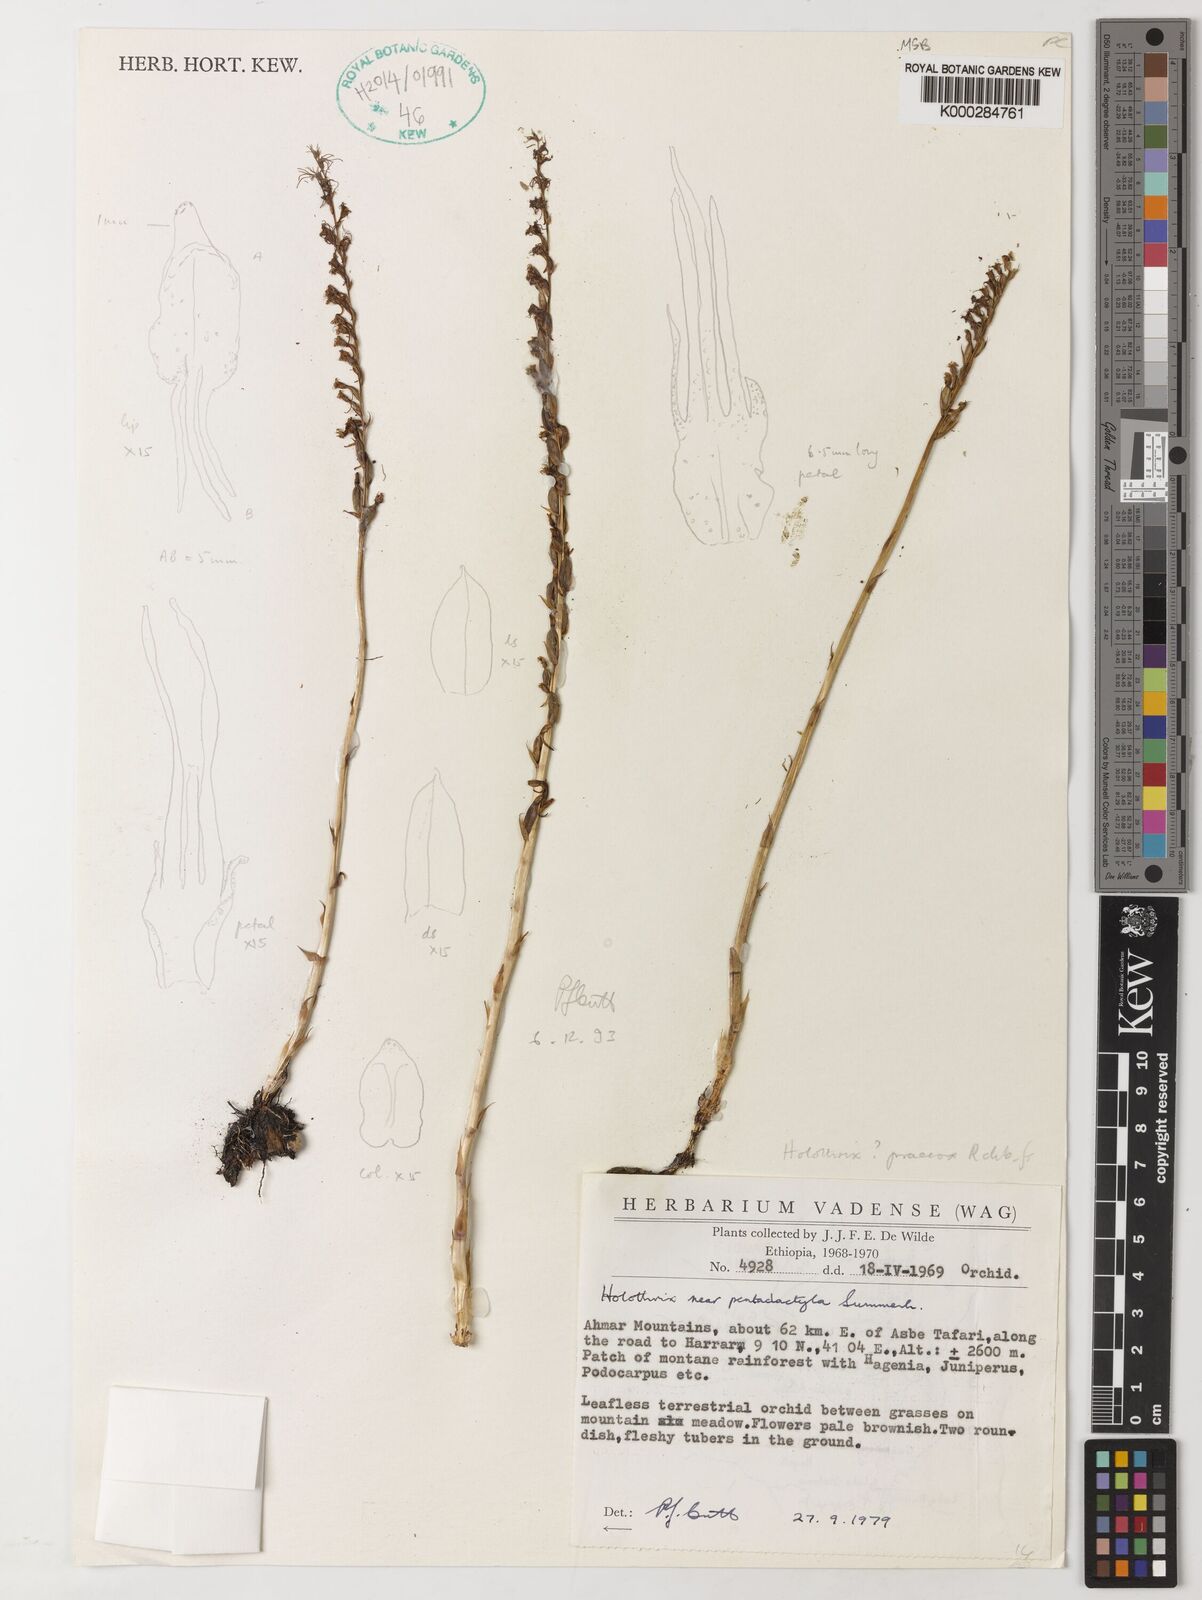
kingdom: Plantae
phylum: Tracheophyta
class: Liliopsida
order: Asparagales
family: Orchidaceae
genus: Holothrix
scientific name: Holothrix pentadactyla
